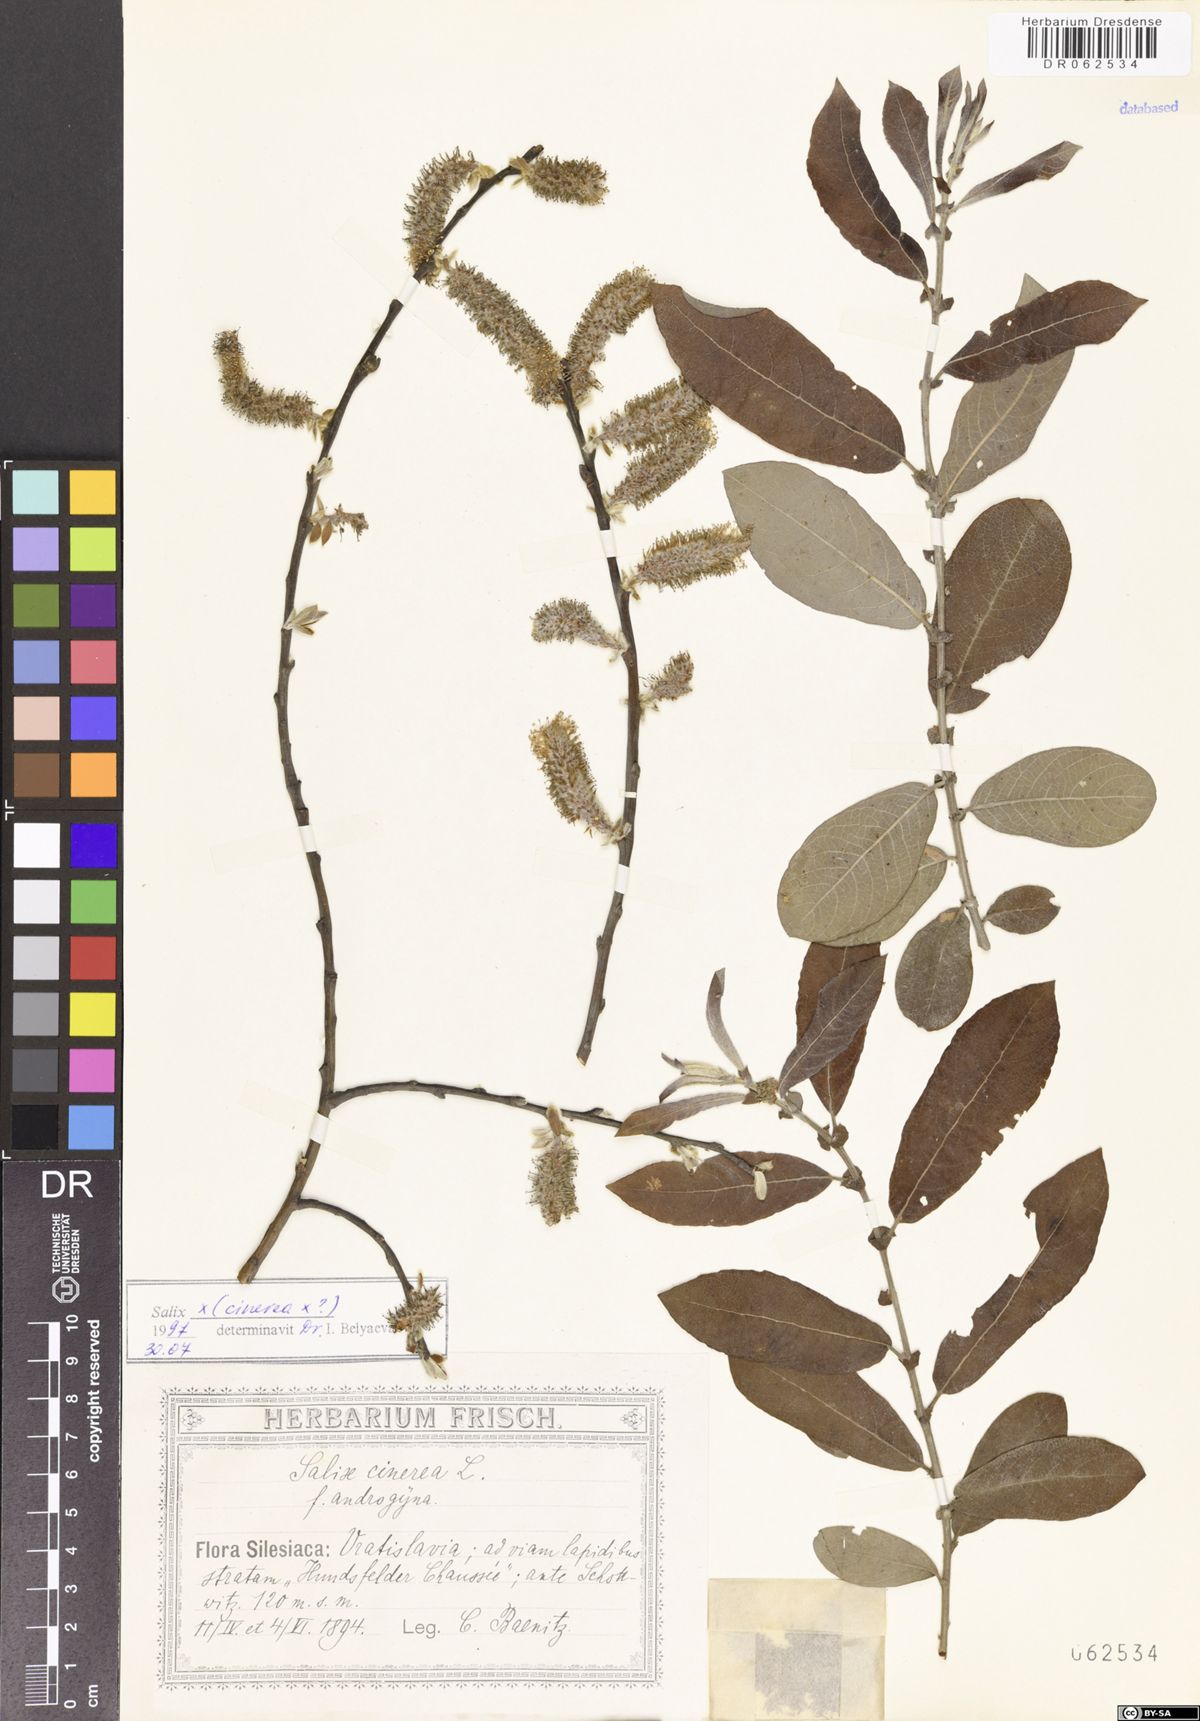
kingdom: Plantae
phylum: Tracheophyta
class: Magnoliopsida
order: Malpighiales
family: Salicaceae
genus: Salix
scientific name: Salix cinerea
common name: Common sallow
